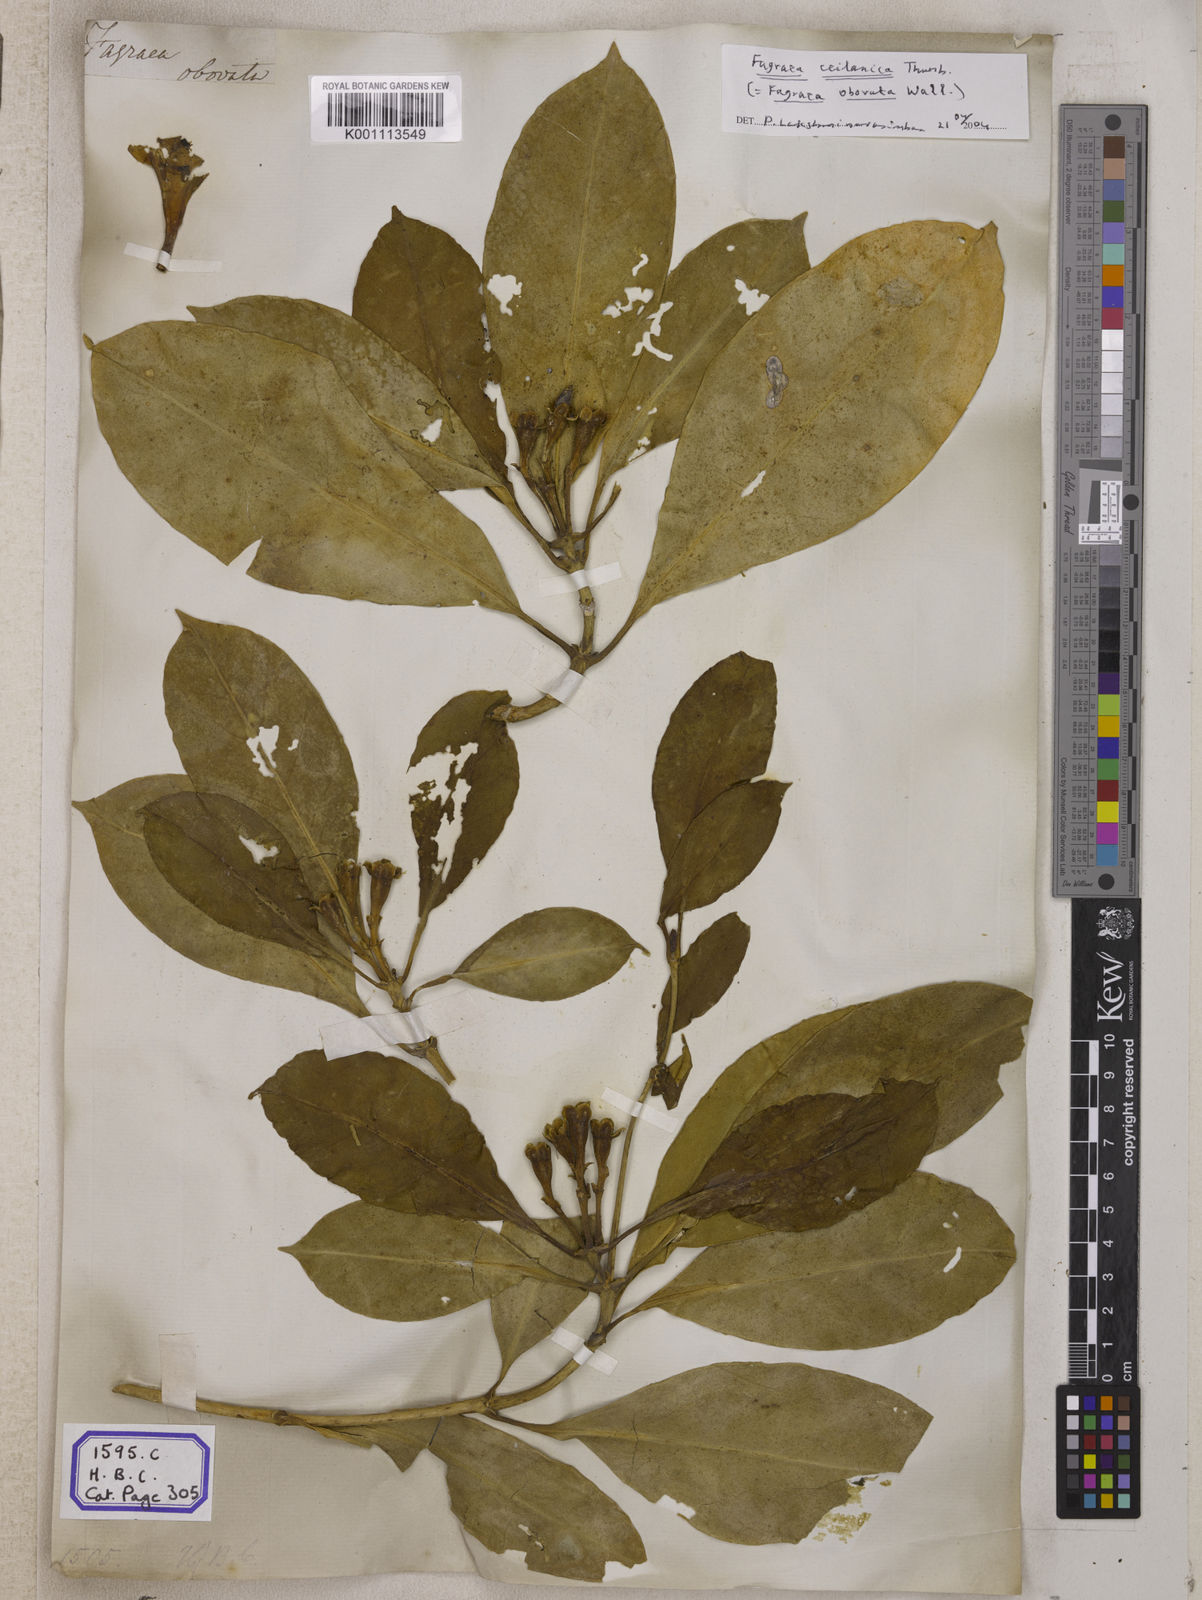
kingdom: Plantae
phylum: Tracheophyta
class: Magnoliopsida
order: Gentianales
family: Gentianaceae
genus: Fagraea
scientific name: Fagraea ceilanica
